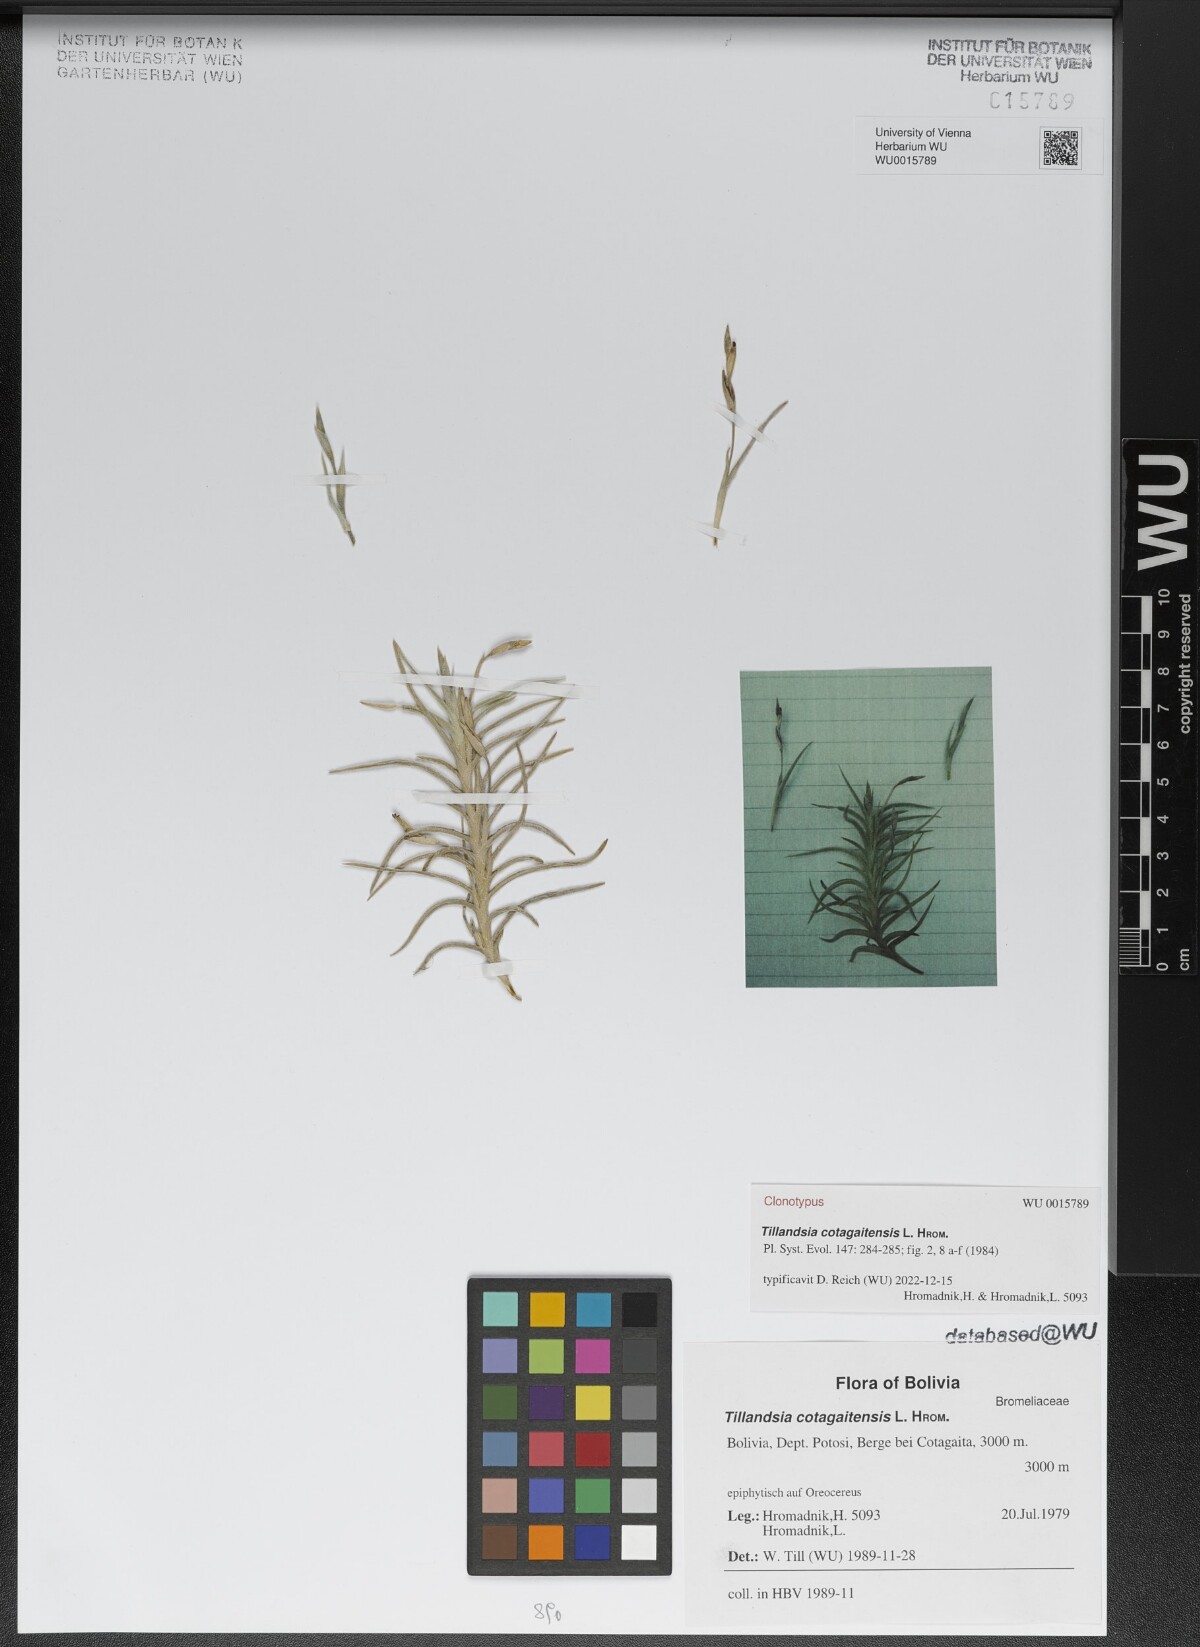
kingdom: Plantae
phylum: Tracheophyta
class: Liliopsida
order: Poales
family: Bromeliaceae
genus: Tillandsia
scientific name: Tillandsia cotagaitensis
